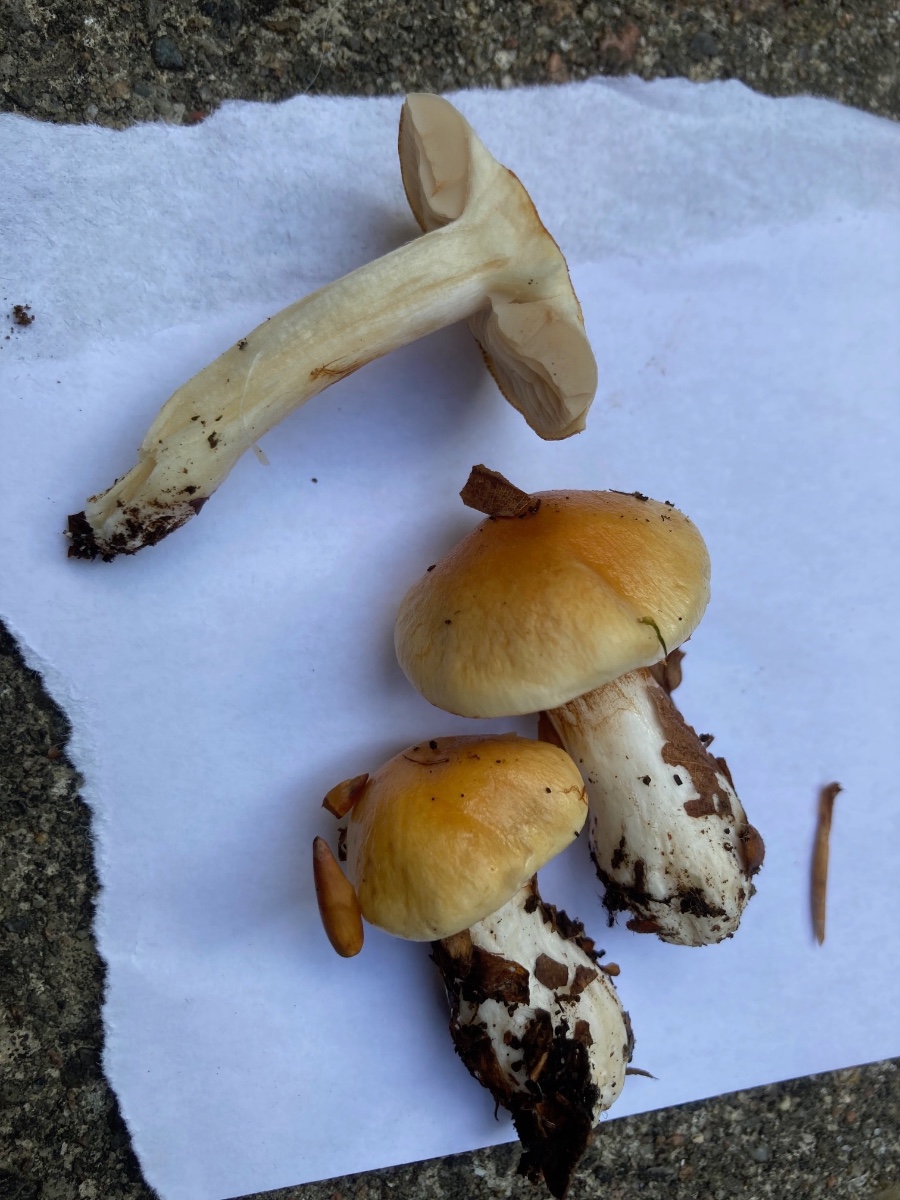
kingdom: Fungi
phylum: Basidiomycota
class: Agaricomycetes
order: Agaricales
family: Cortinariaceae
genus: Thaxterogaster
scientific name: Thaxterogaster emollitus
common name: besk slørhat
